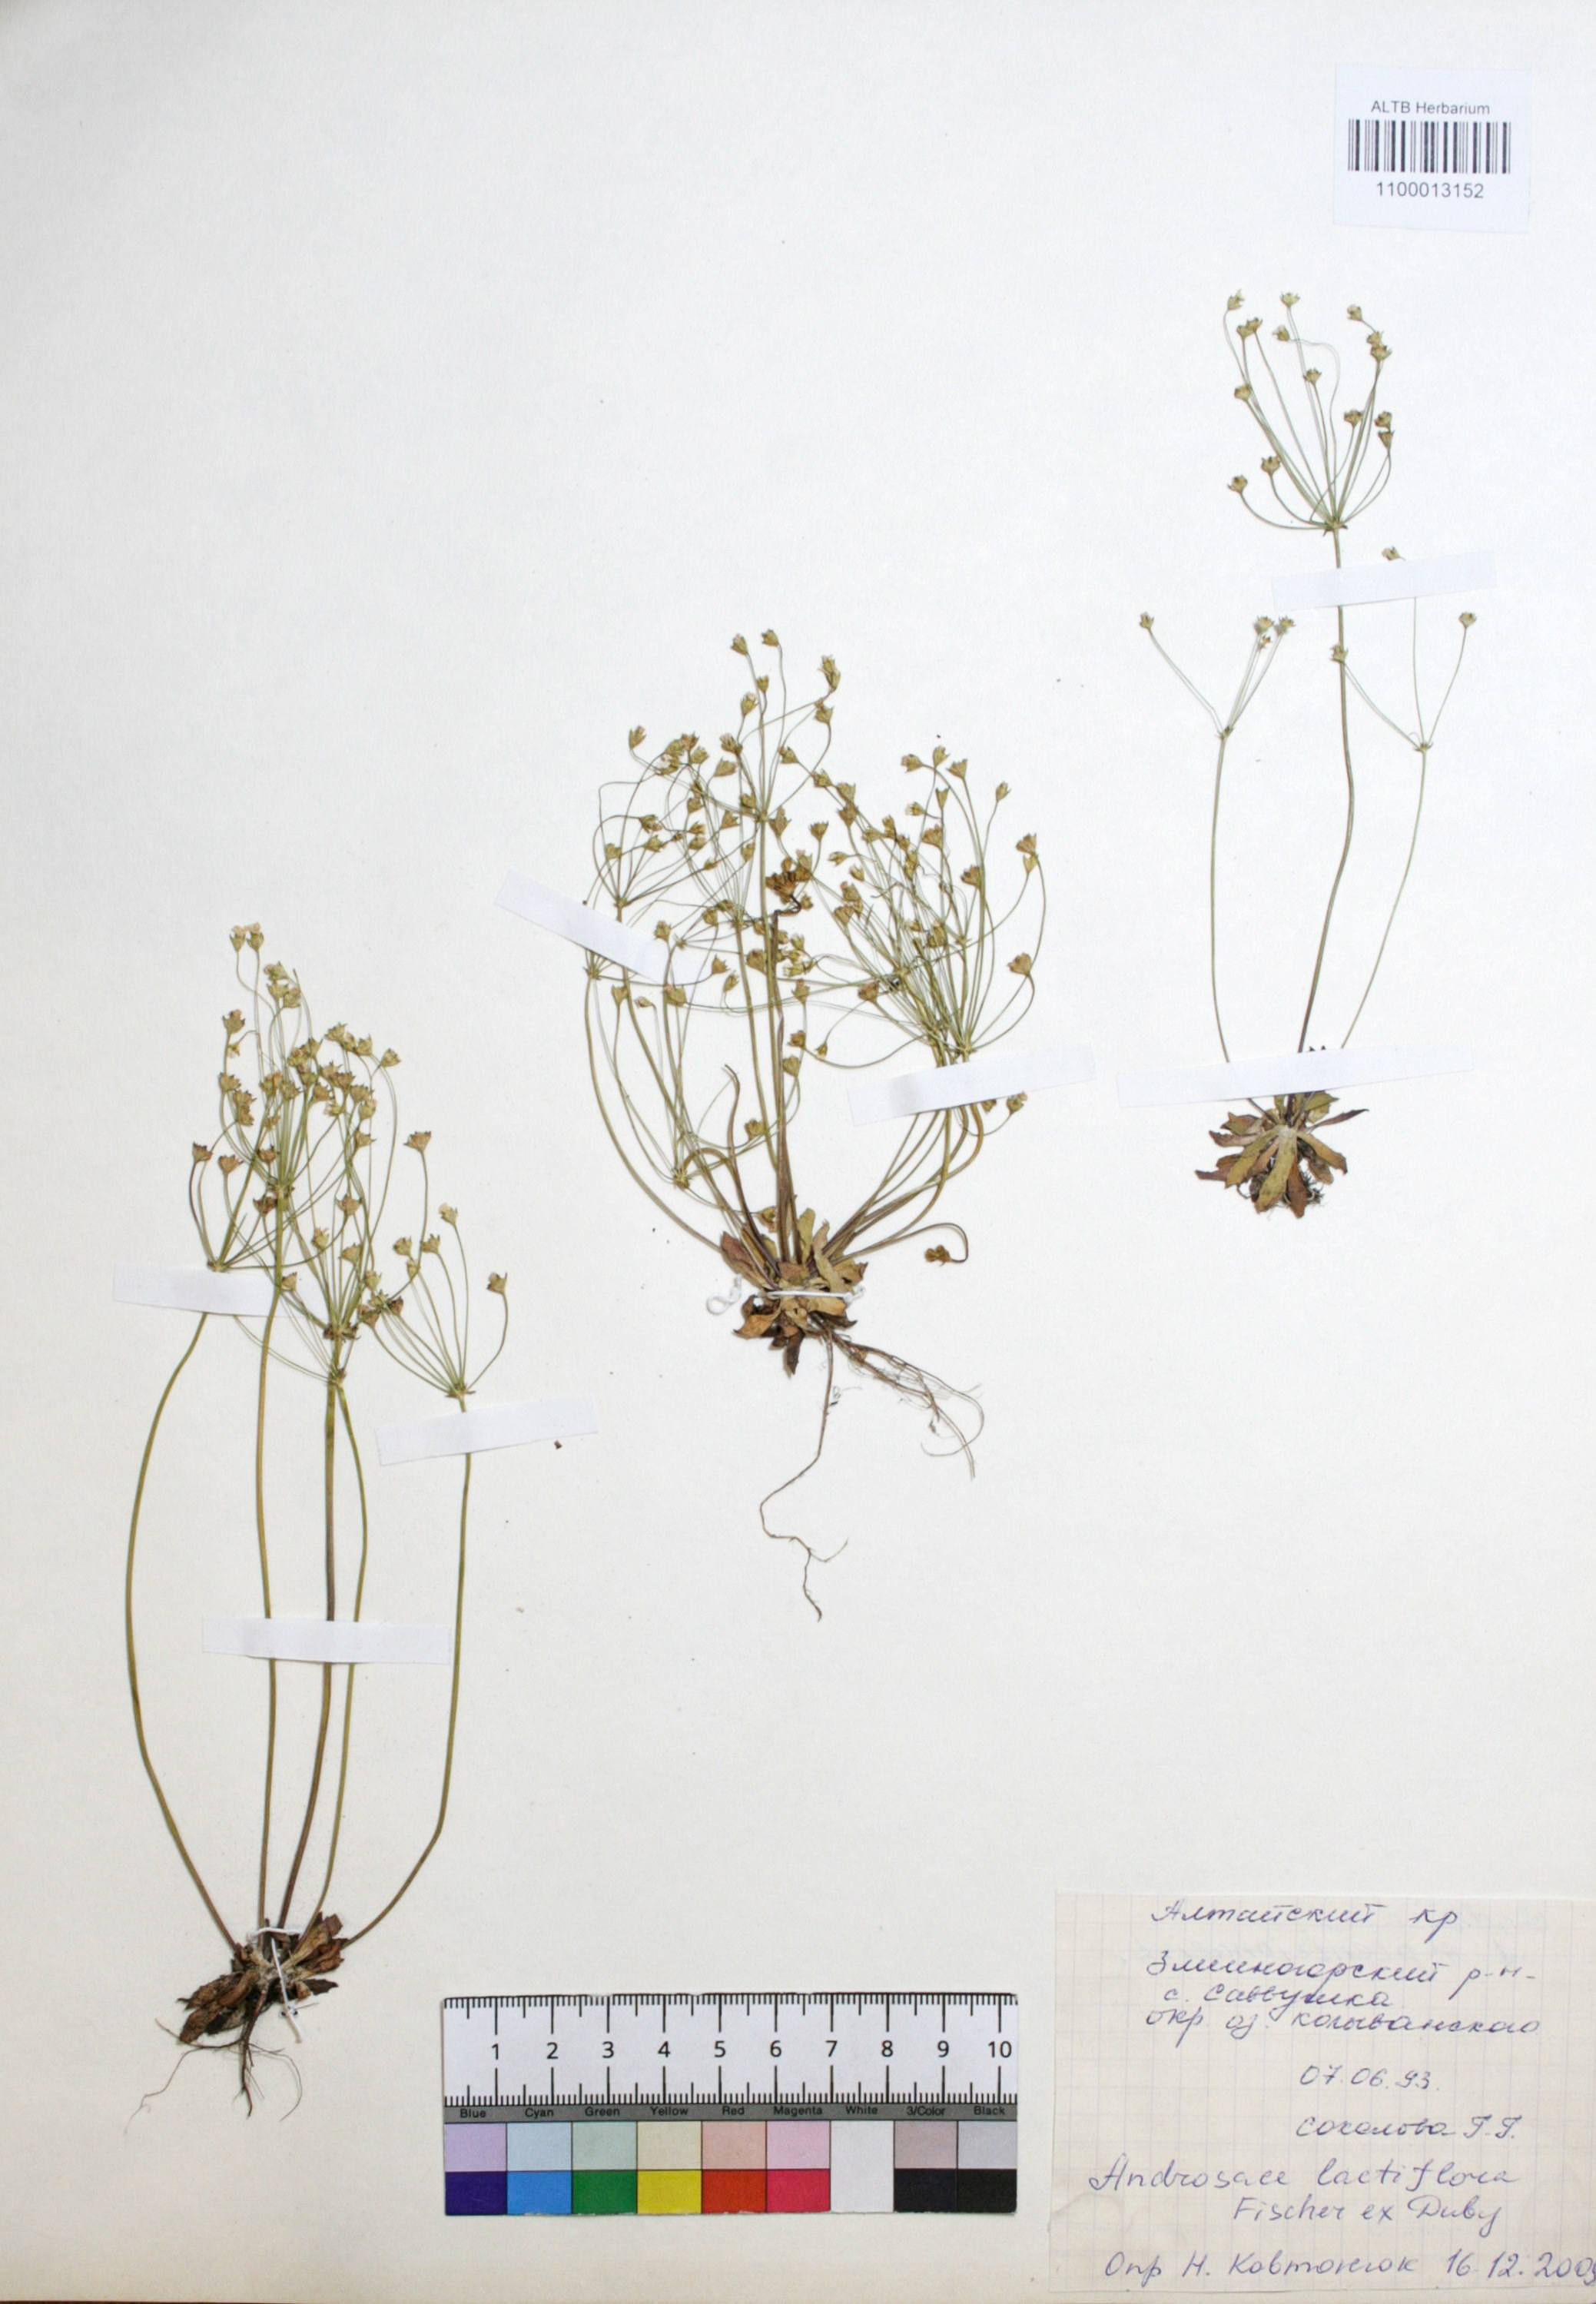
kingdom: Plantae
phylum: Tracheophyta
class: Magnoliopsida
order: Ericales
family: Primulaceae
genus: Androsace
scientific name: Androsace lactiflora
